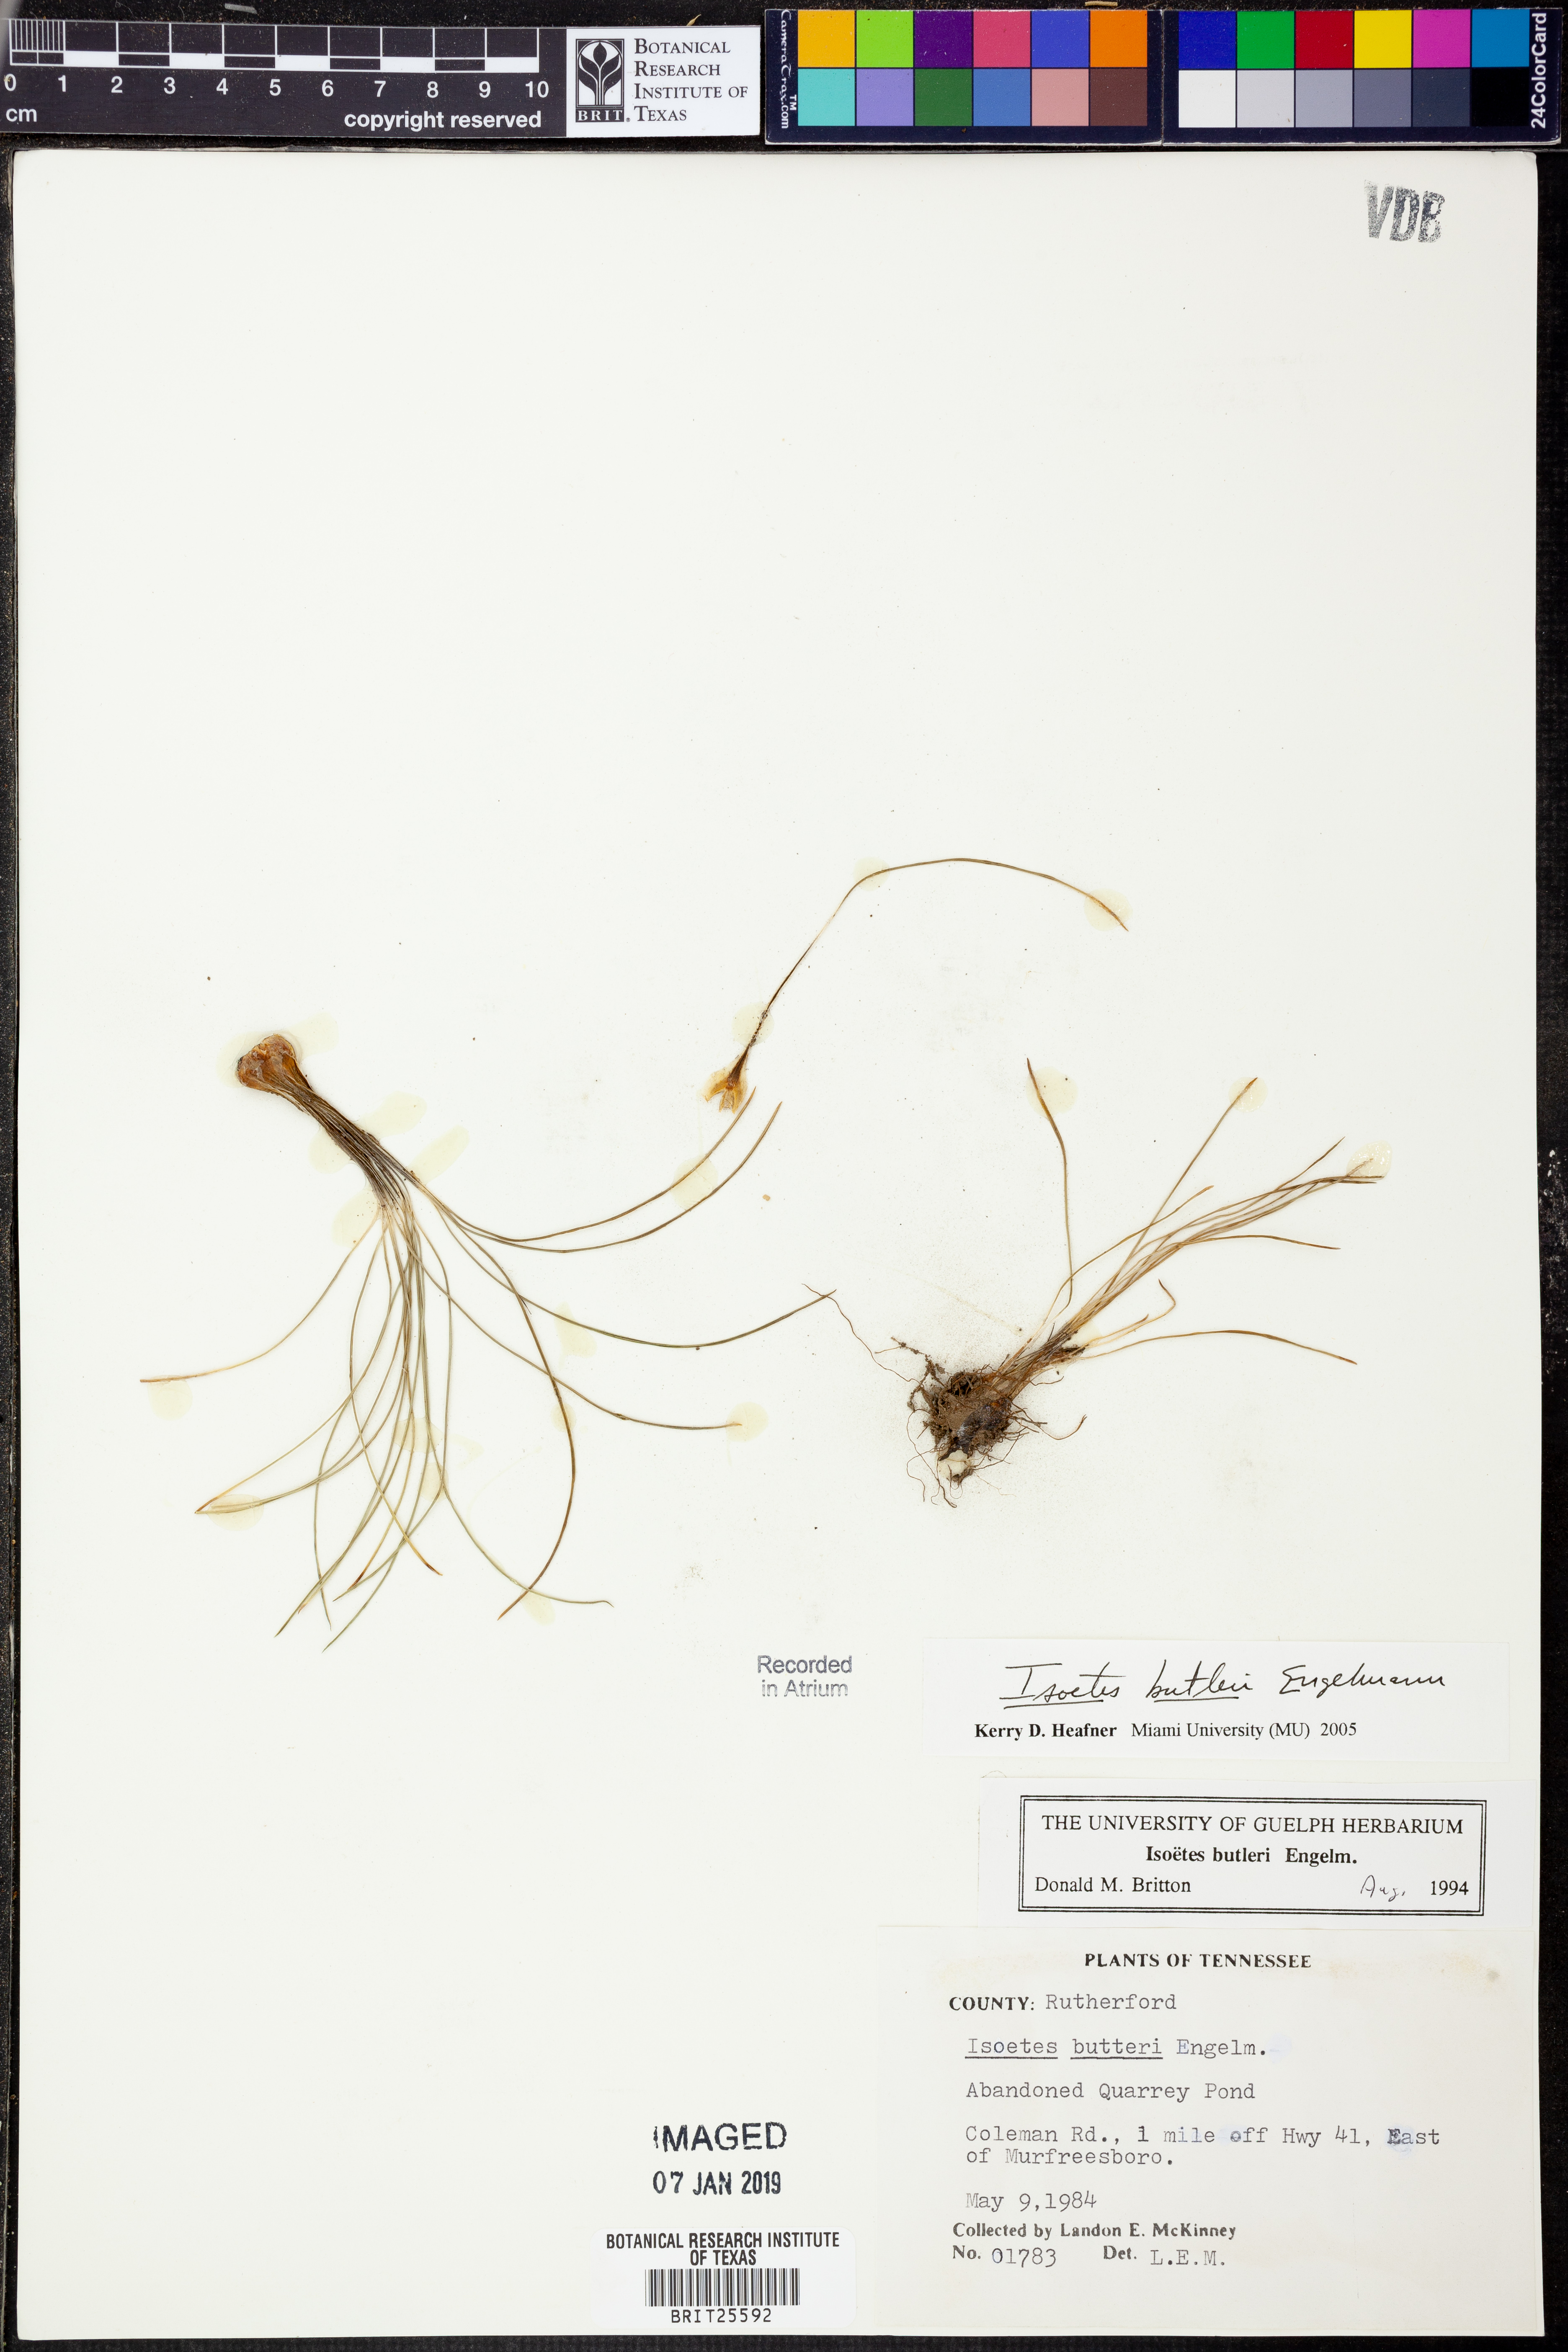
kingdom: Plantae
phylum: Tracheophyta
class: Lycopodiopsida
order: Isoetales
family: Isoetaceae
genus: Isoetes
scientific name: Isoetes butleri
